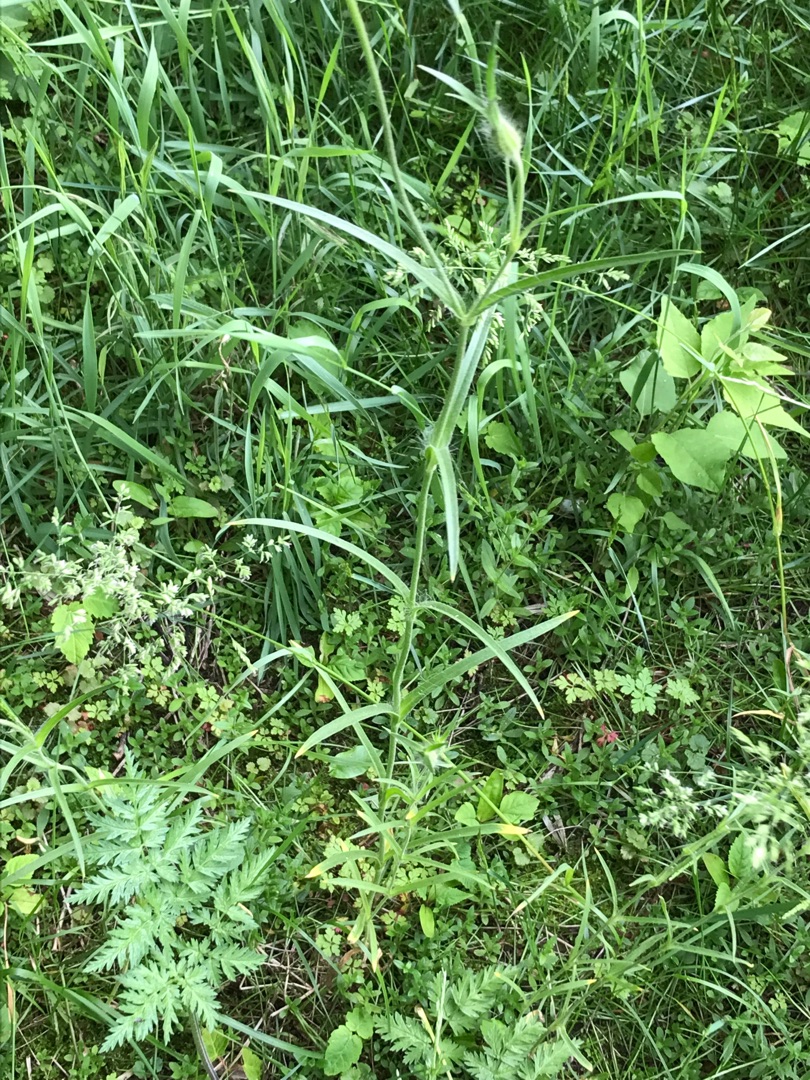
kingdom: Plantae
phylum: Tracheophyta
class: Magnoliopsida
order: Caryophyllales
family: Caryophyllaceae
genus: Agrostemma
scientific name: Agrostemma githago
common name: Klinte
